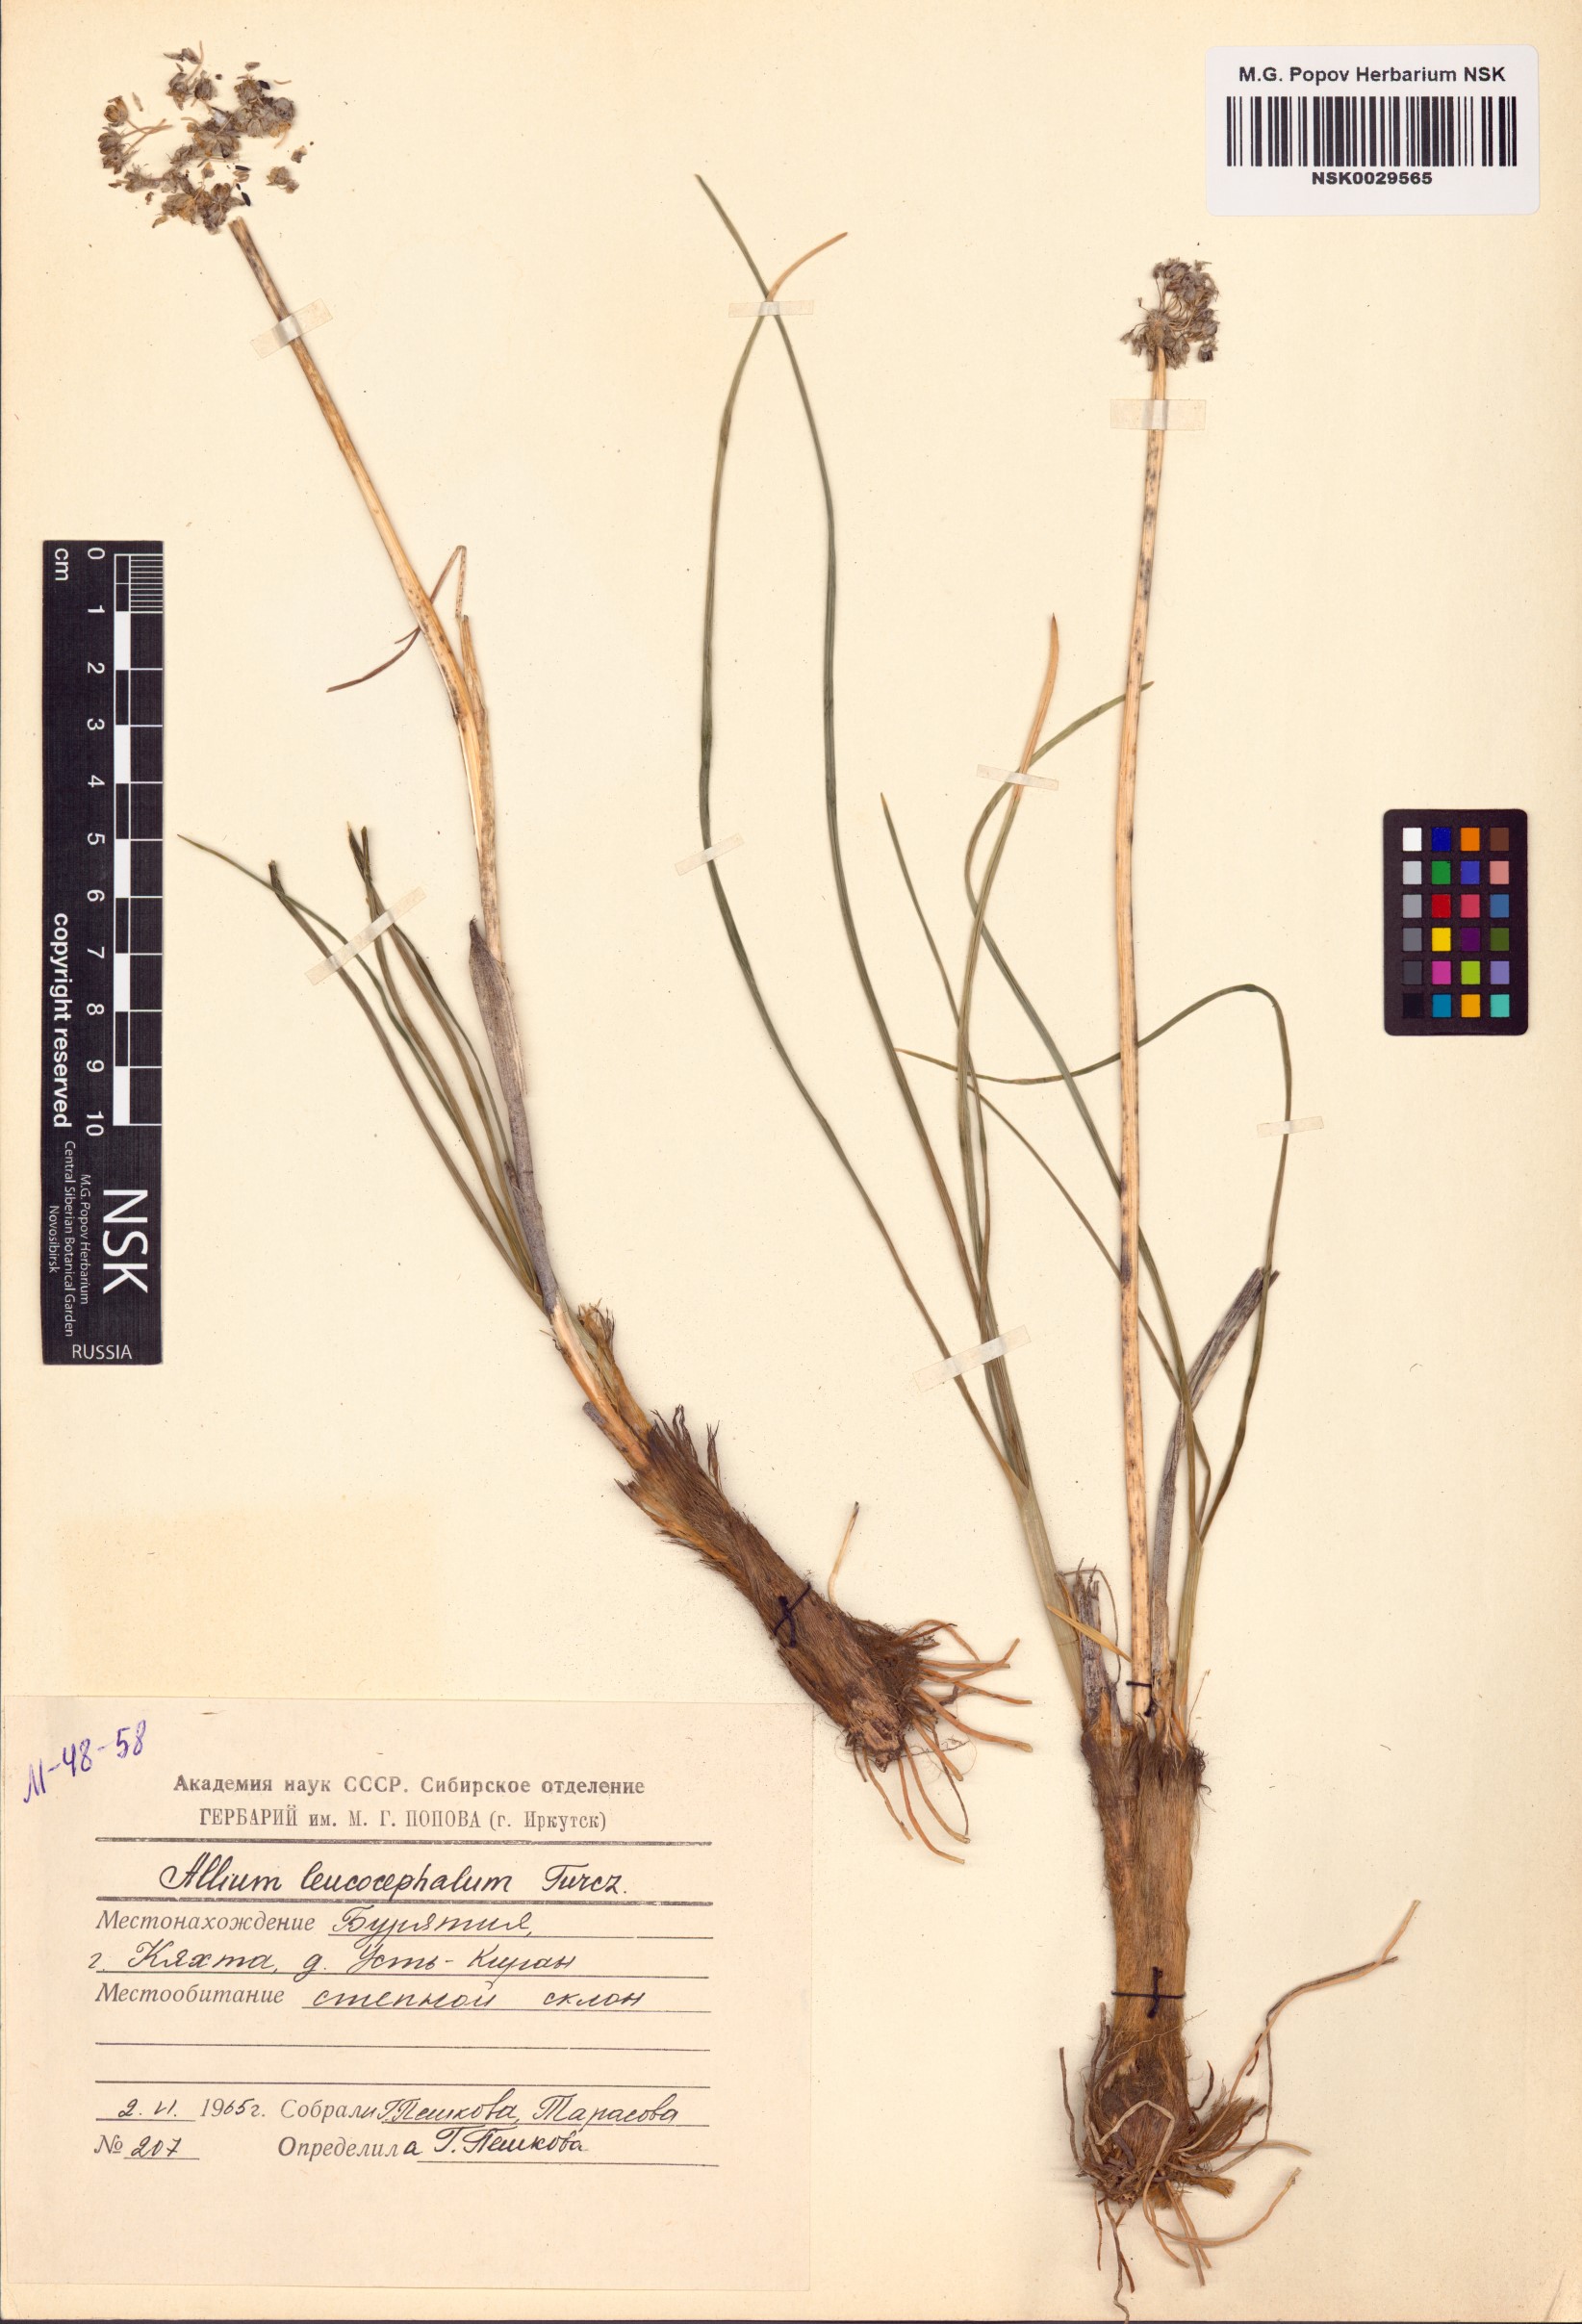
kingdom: Plantae
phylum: Tracheophyta
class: Liliopsida
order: Asparagales
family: Amaryllidaceae
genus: Allium
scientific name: Allium leucocephalum
